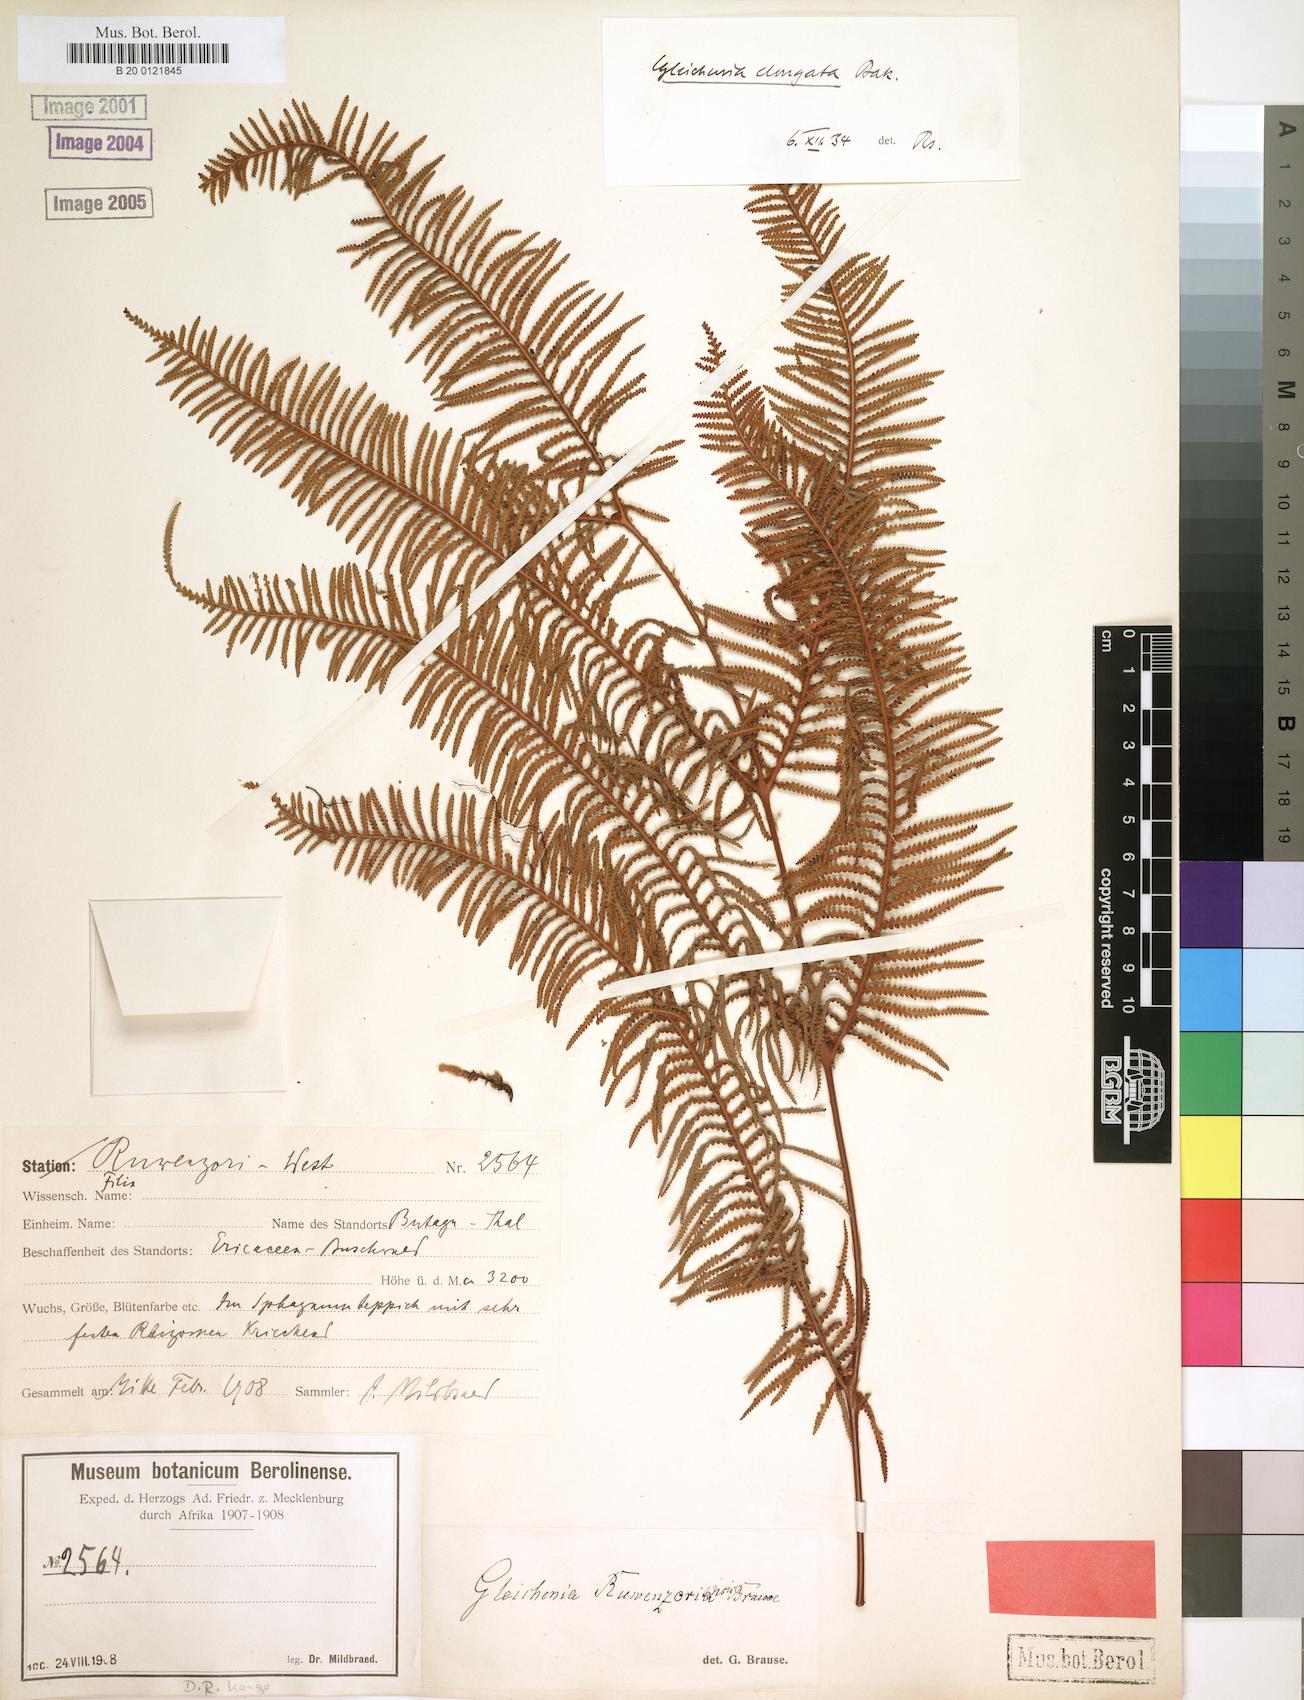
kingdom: Plantae
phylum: Tracheophyta
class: Polypodiopsida
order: Gleicheniales
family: Gleicheniaceae
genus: Gleichenia
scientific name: Gleichenia elongata
